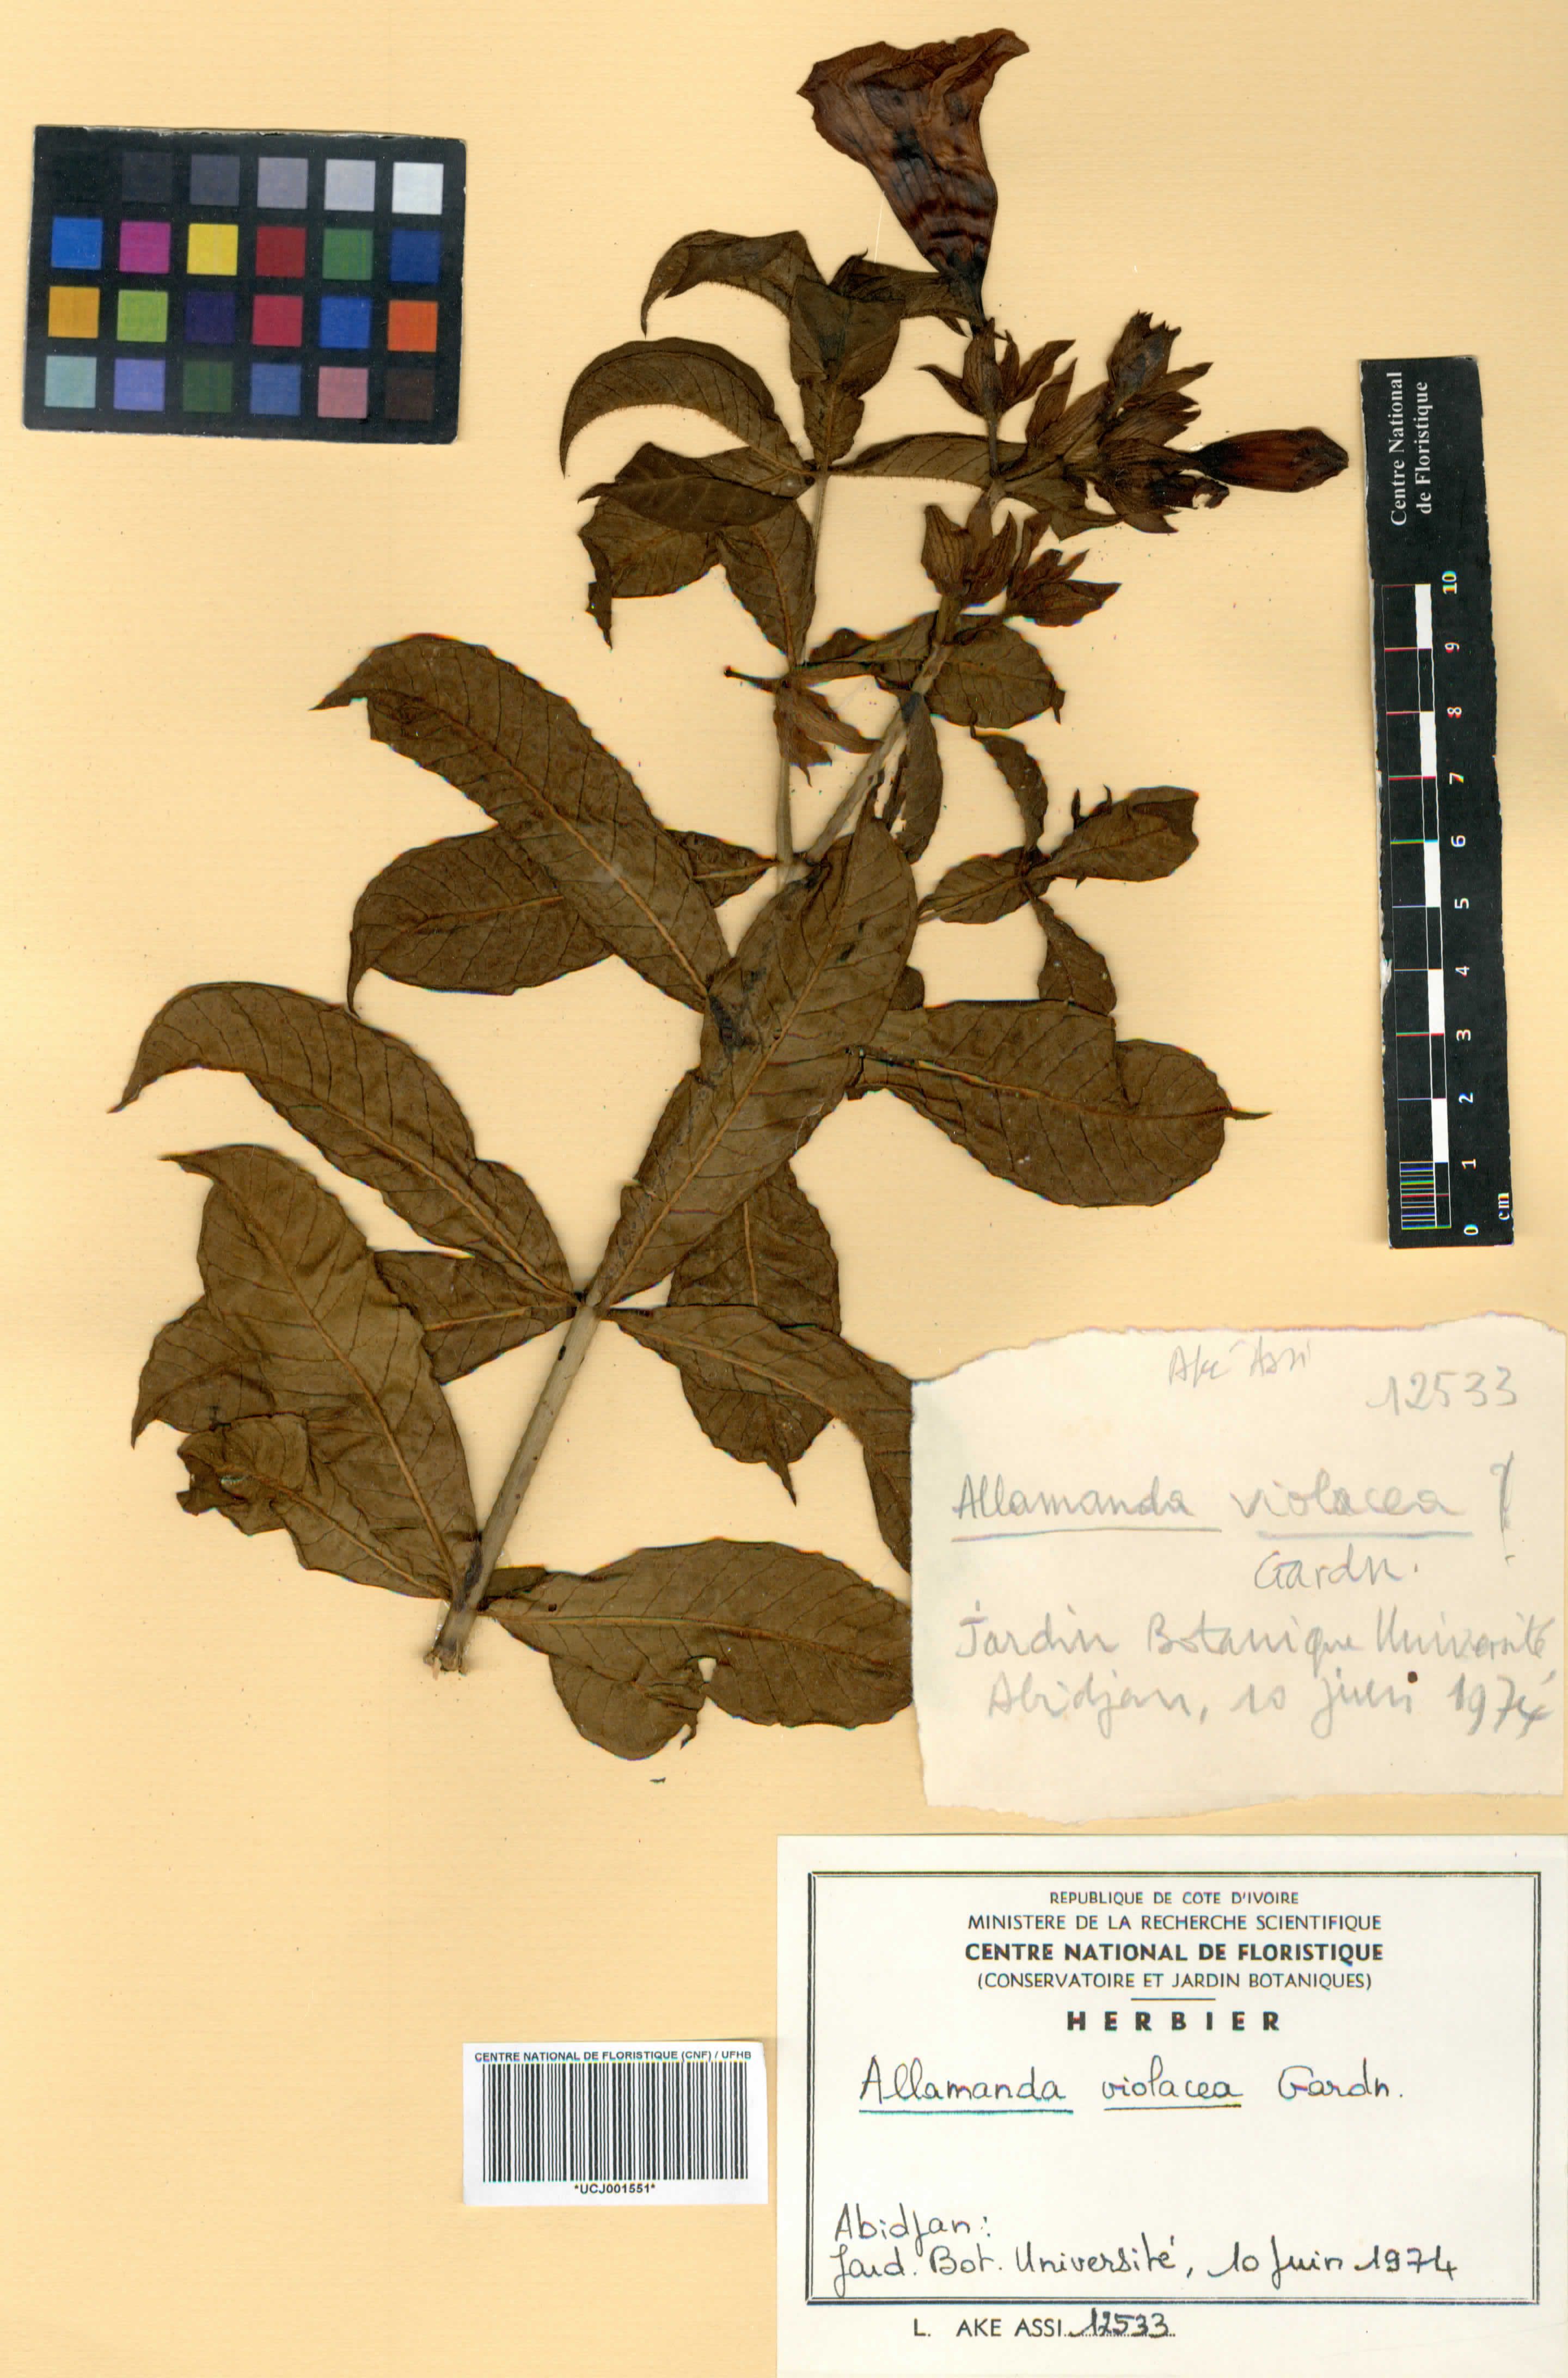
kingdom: Plantae
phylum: Tracheophyta
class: Magnoliopsida
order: Gentianales
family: Apocynaceae
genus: Allamanda
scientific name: Allamanda blanchetii
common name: Purple allamanda
